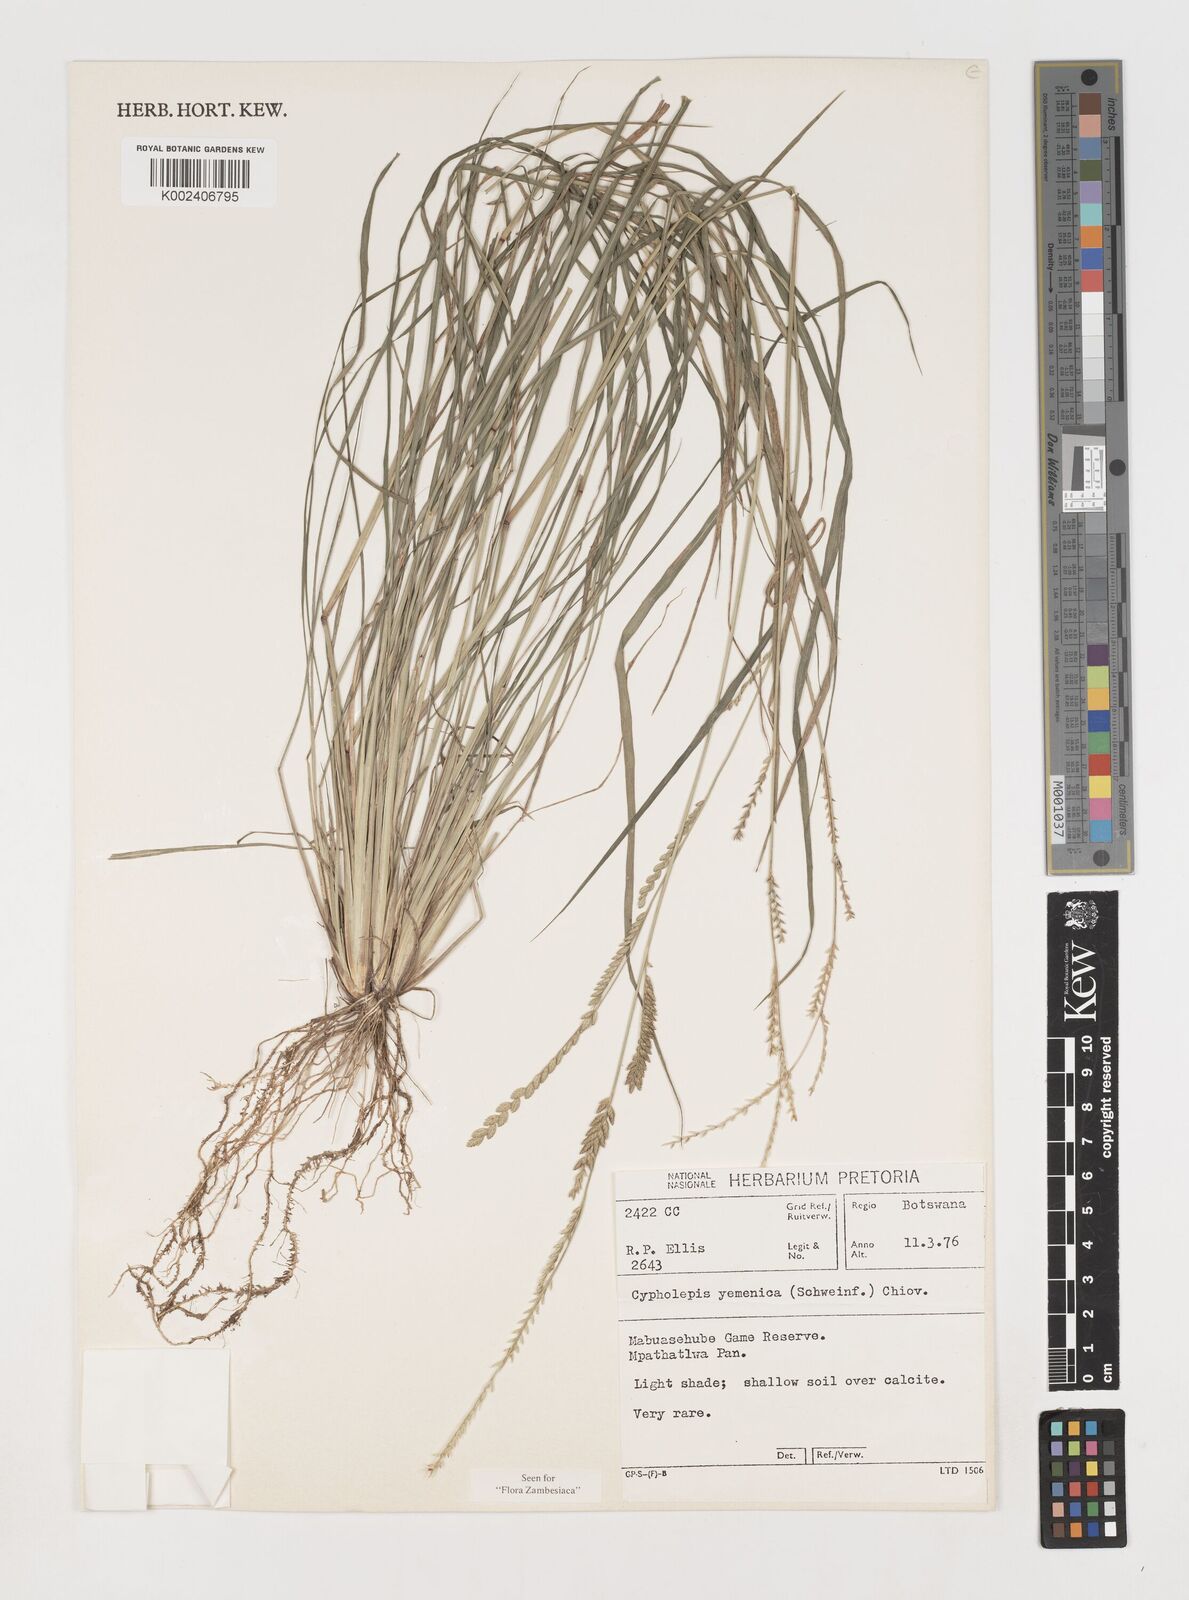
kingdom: Plantae
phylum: Tracheophyta
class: Liliopsida
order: Poales
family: Poaceae
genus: Disakisperma
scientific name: Disakisperma yemenicum
